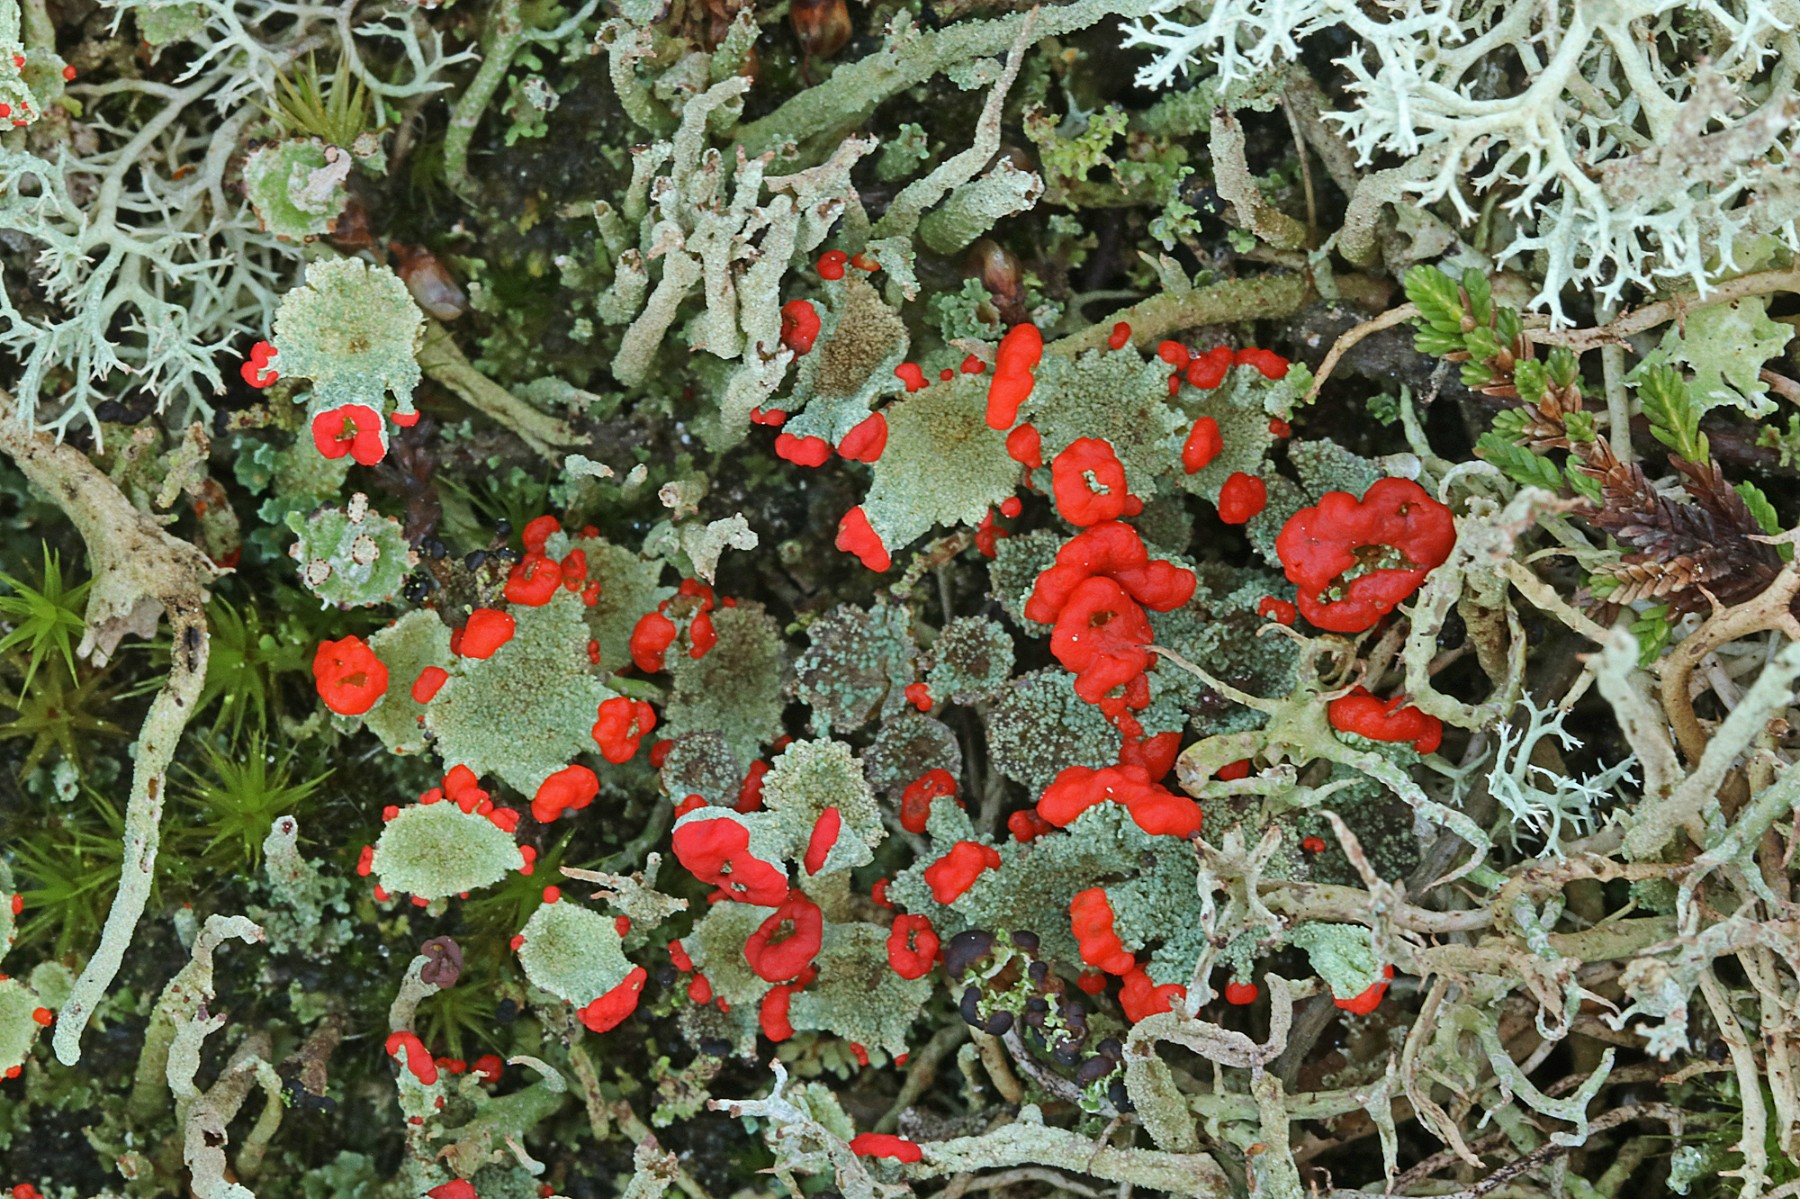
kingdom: Fungi
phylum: Ascomycota
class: Lecanoromycetes
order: Lecanorales
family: Cladoniaceae
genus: Cladonia
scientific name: Cladonia diversa
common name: rød bægerlav
